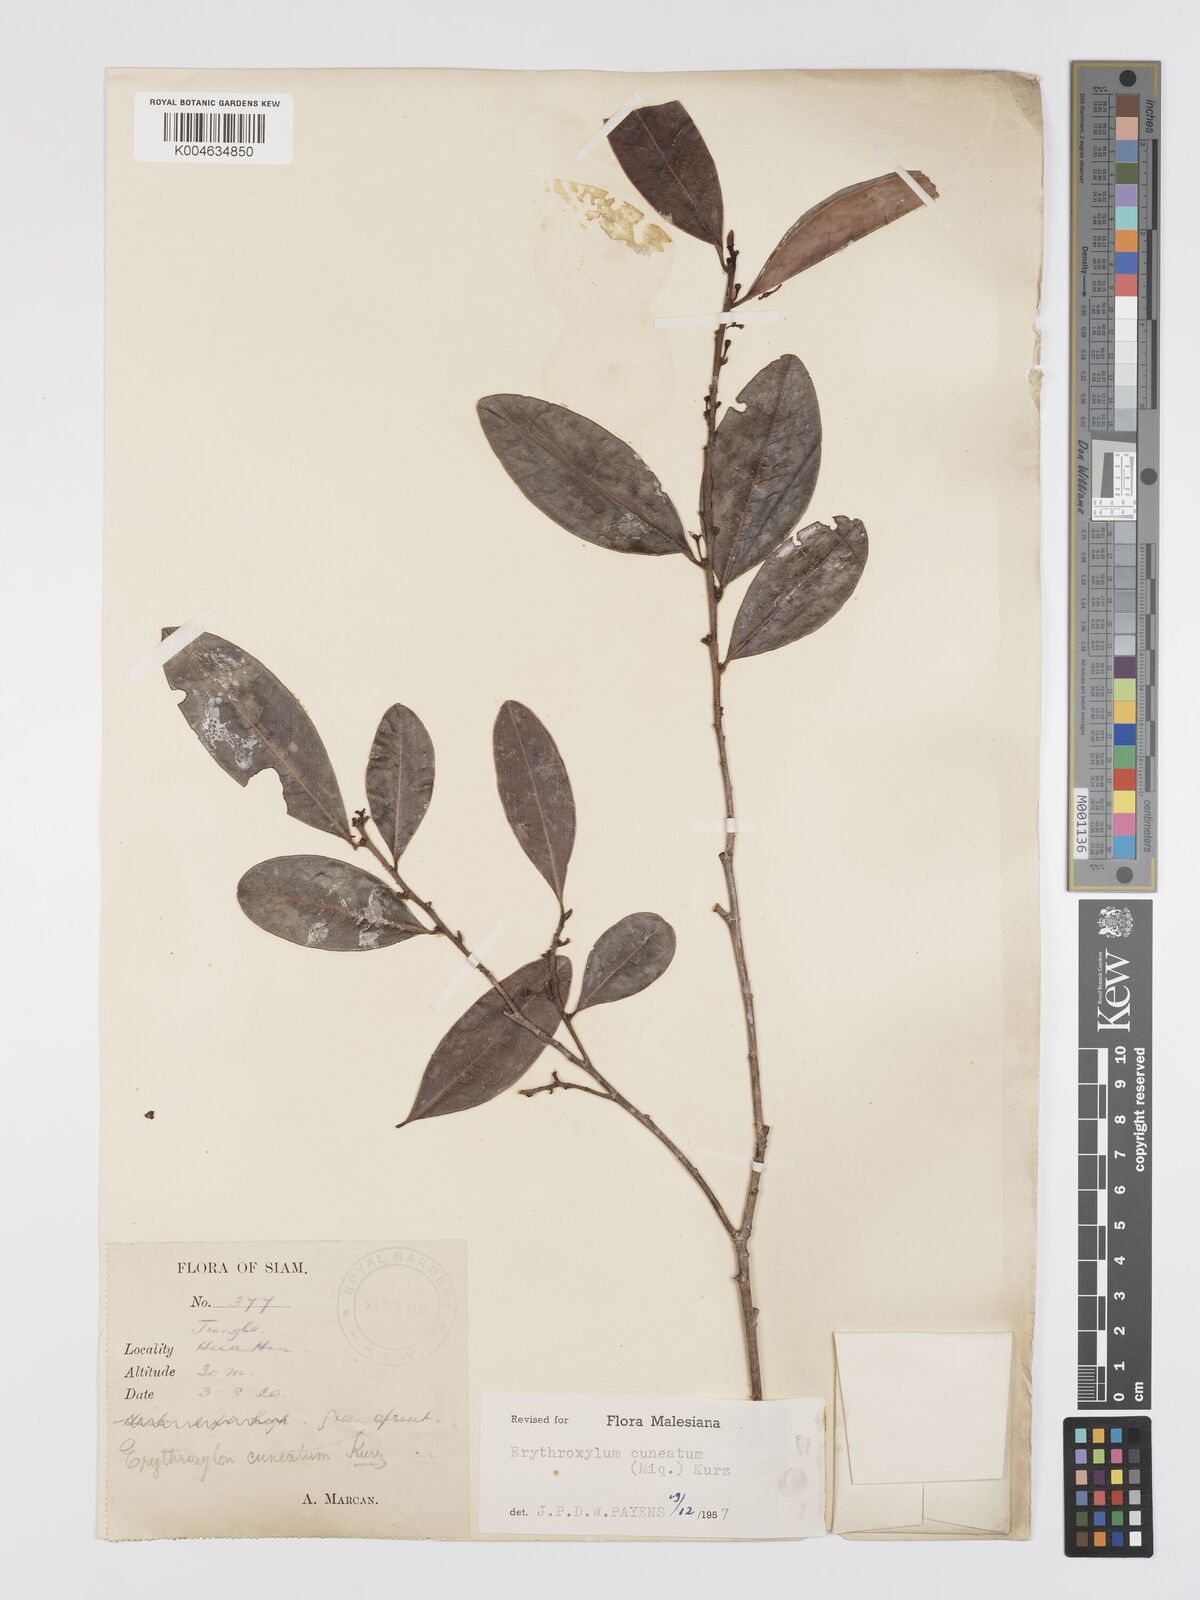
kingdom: Plantae
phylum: Tracheophyta
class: Magnoliopsida
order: Malpighiales
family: Erythroxylaceae
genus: Erythroxylum
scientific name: Erythroxylum cuneatum
